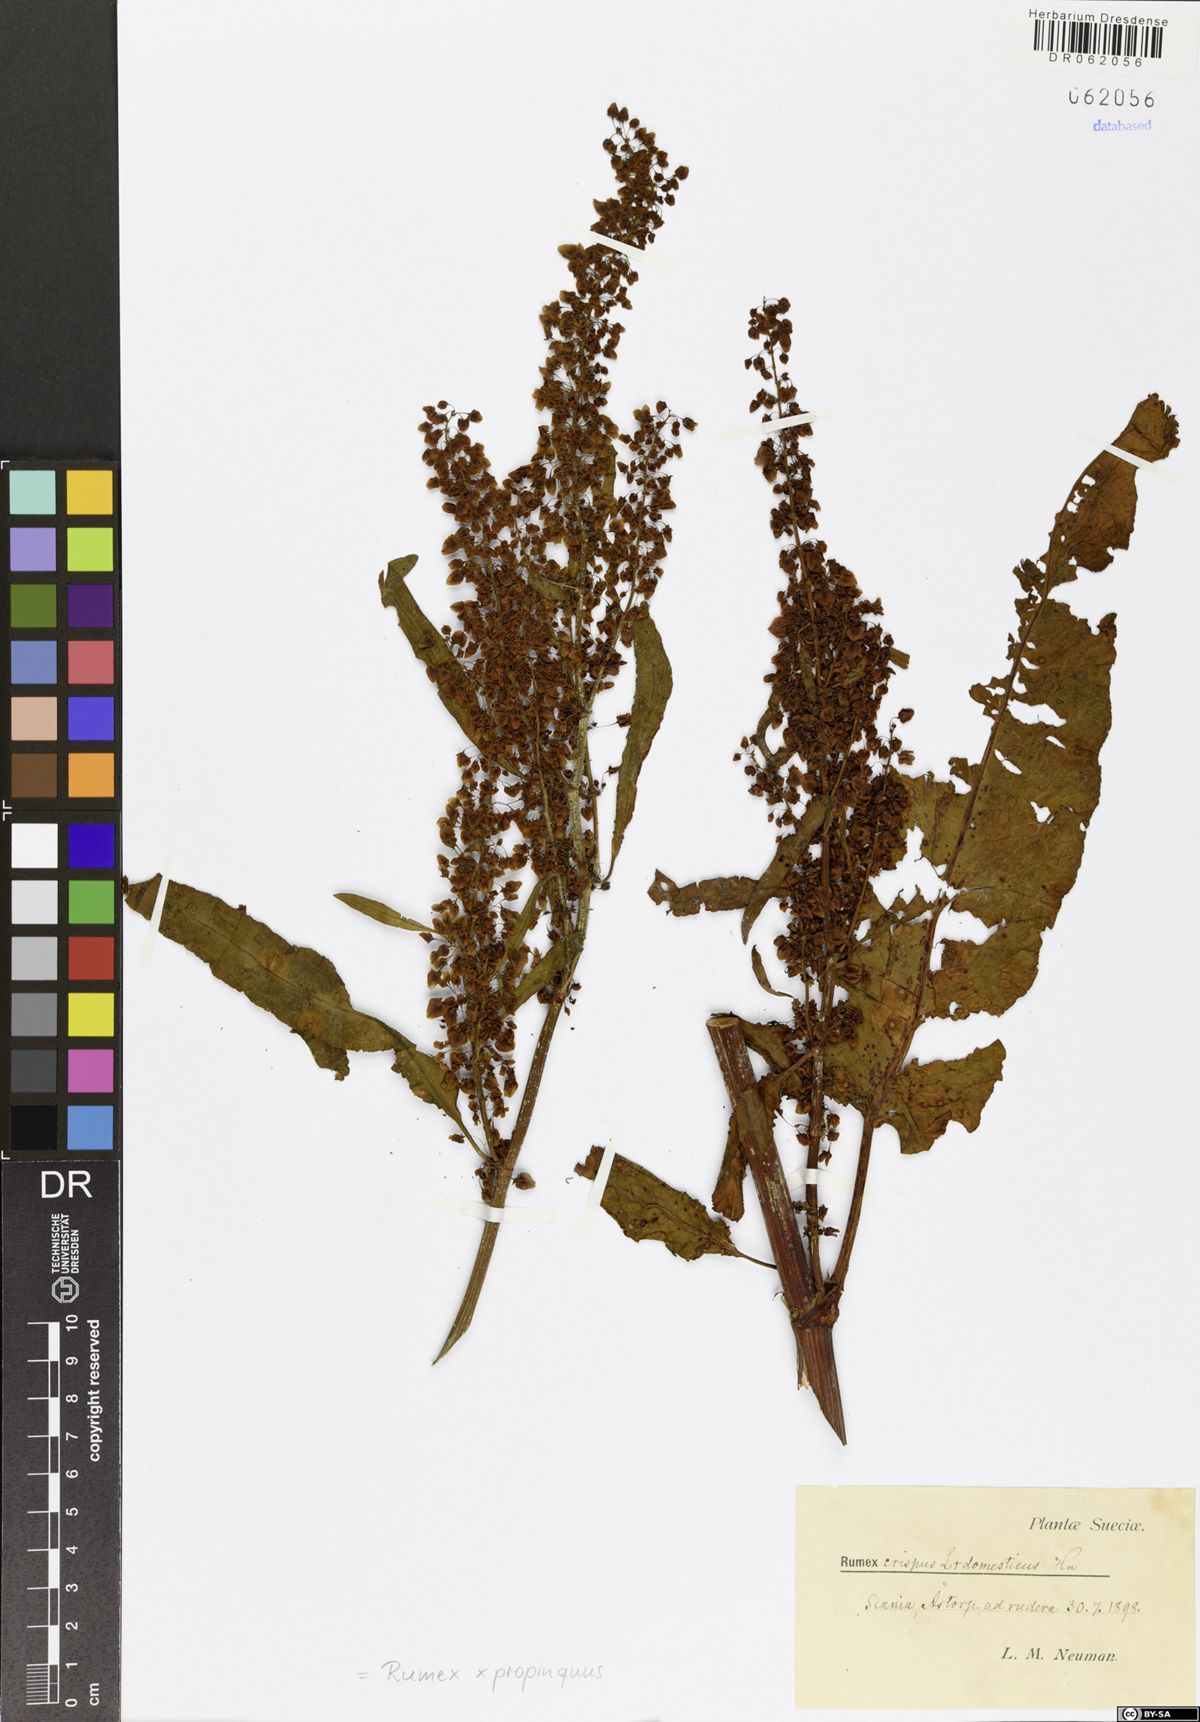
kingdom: Plantae
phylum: Tracheophyta
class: Magnoliopsida
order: Caryophyllales
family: Polygonaceae
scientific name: Polygonaceae
